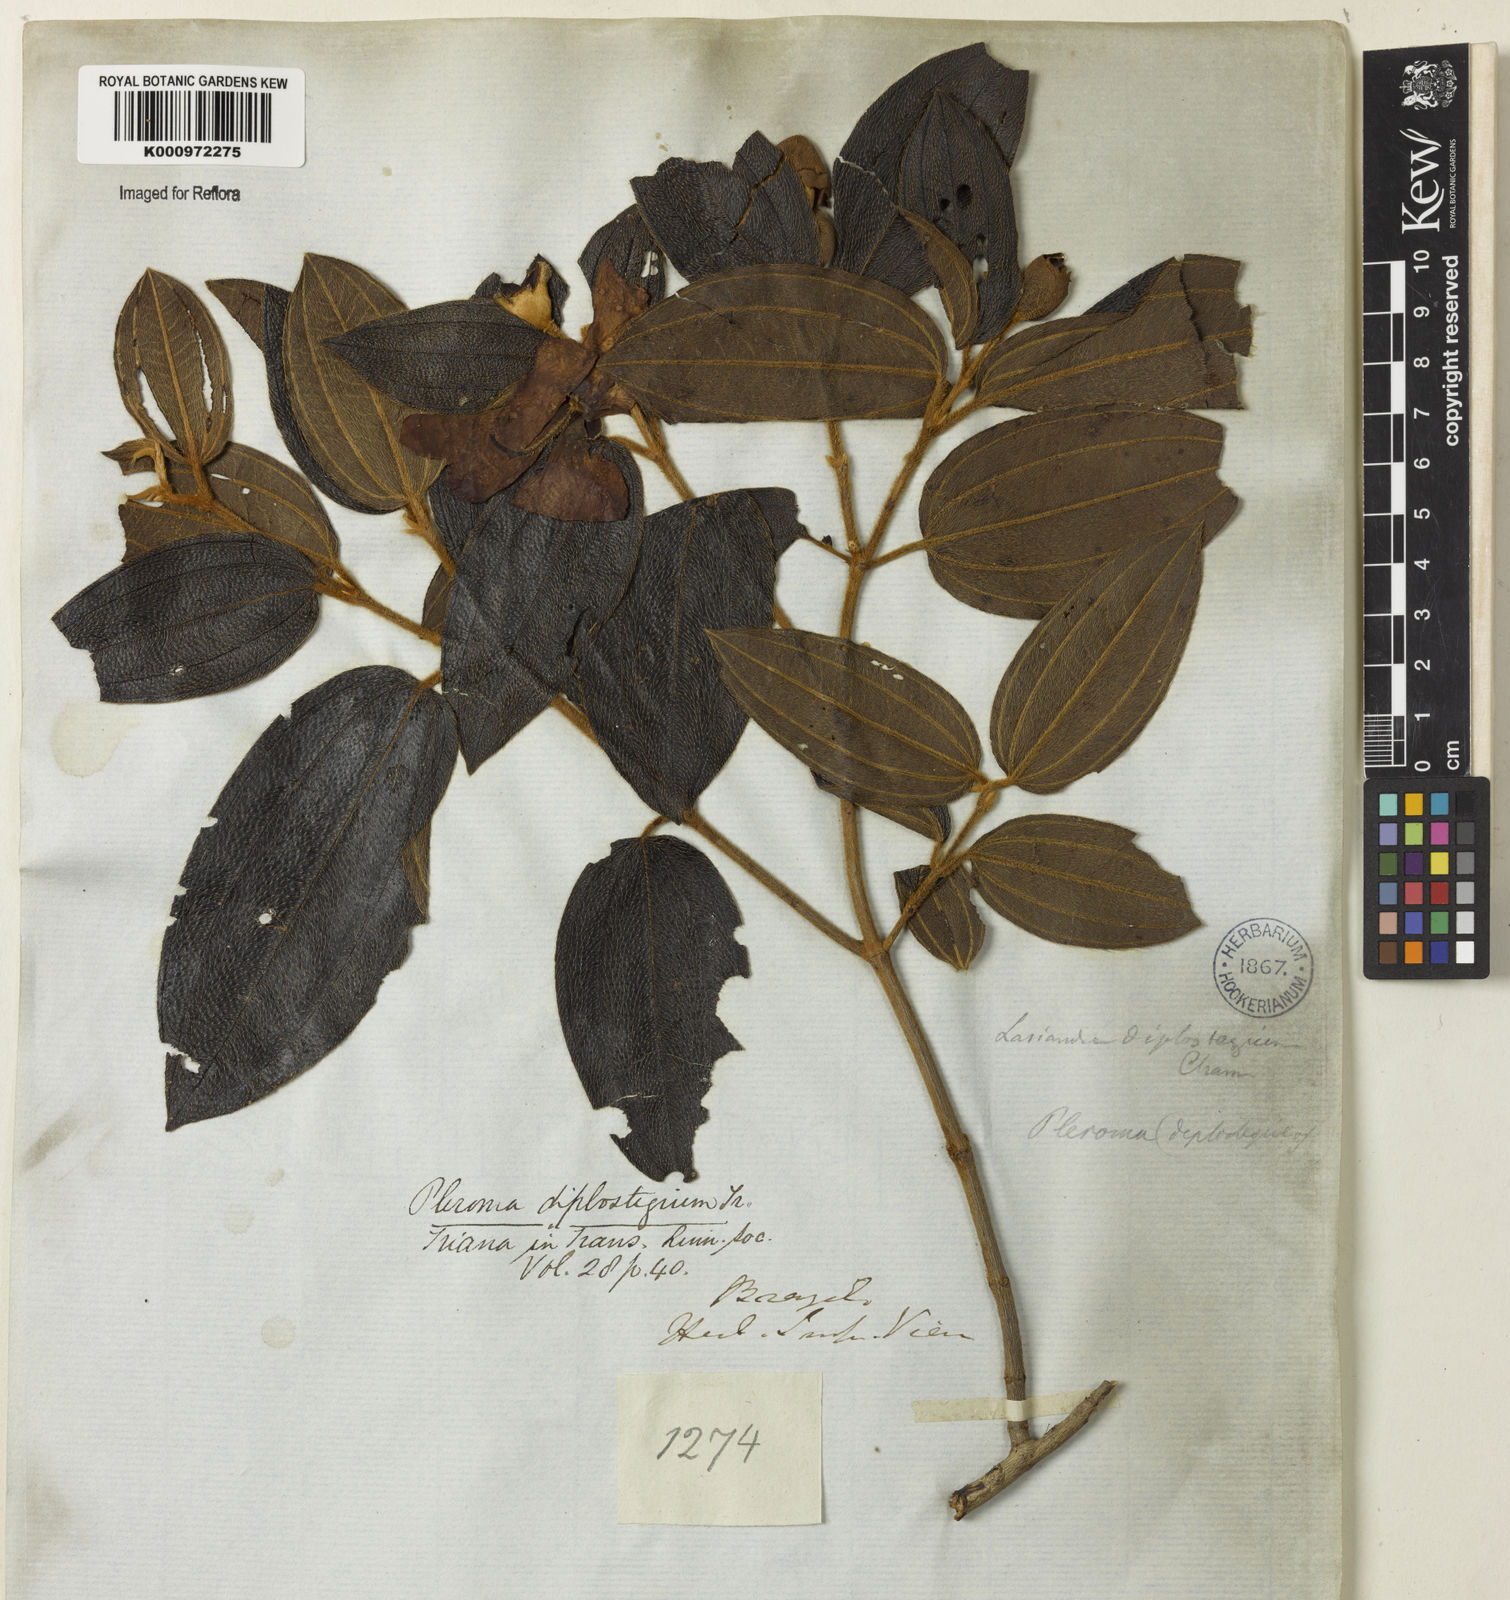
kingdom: Plantae
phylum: Tracheophyta
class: Magnoliopsida
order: Myrtales
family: Melastomataceae
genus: Pleroma
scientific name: Pleroma canescens
